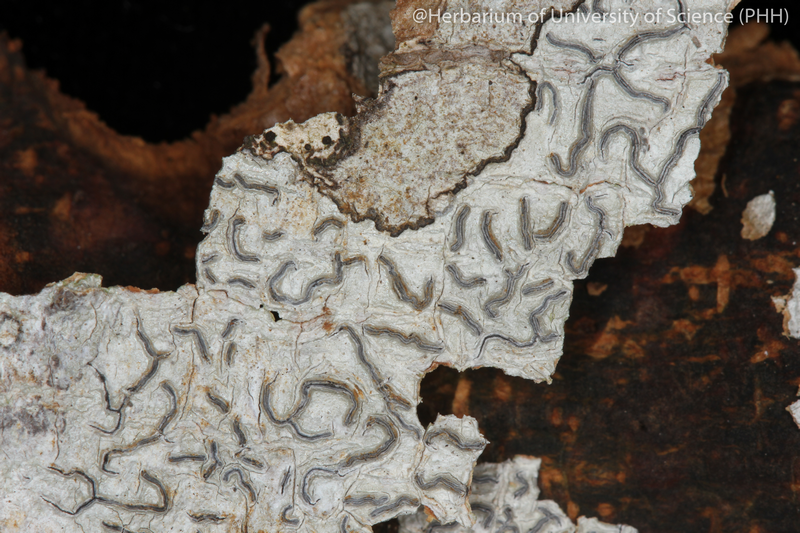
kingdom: Fungi
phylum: Ascomycota
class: Lecanoromycetes
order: Ostropales
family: Graphidaceae
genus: Glyphis
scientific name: Glyphis cicatricosa
